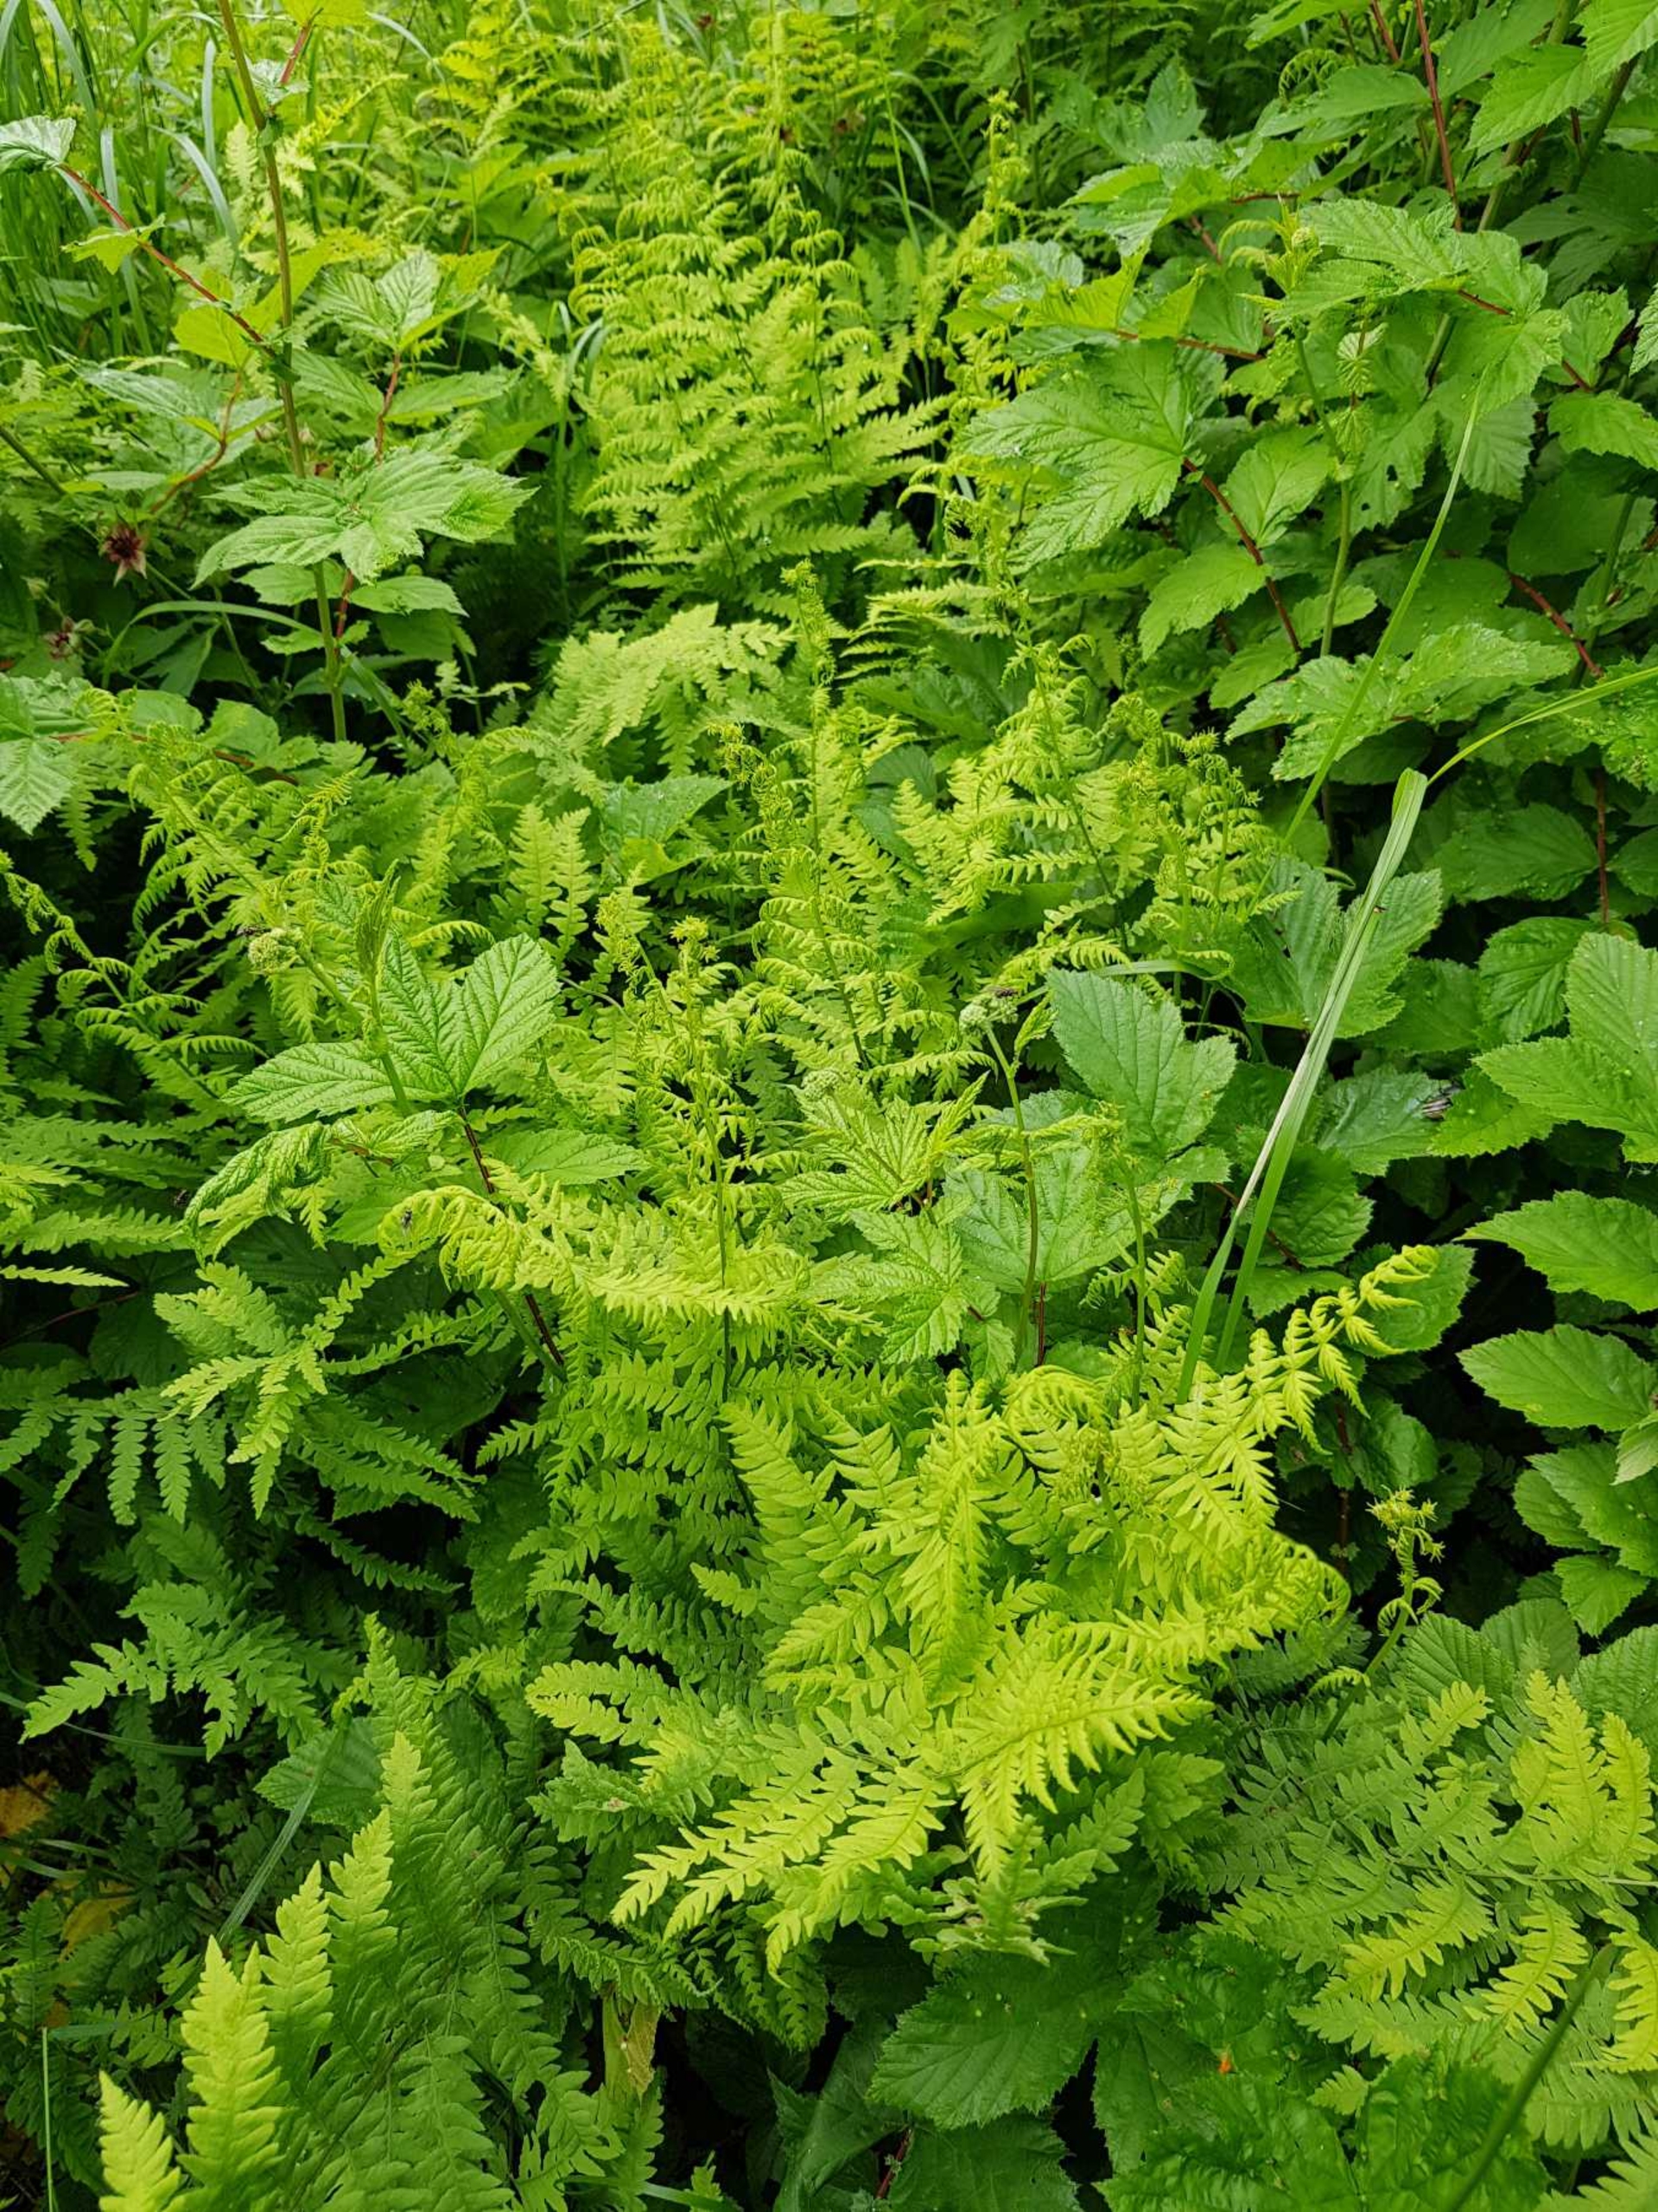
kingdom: Plantae
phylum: Tracheophyta
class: Polypodiopsida
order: Polypodiales
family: Thelypteridaceae
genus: Thelypteris
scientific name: Thelypteris palustris
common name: Kærmangeløv
